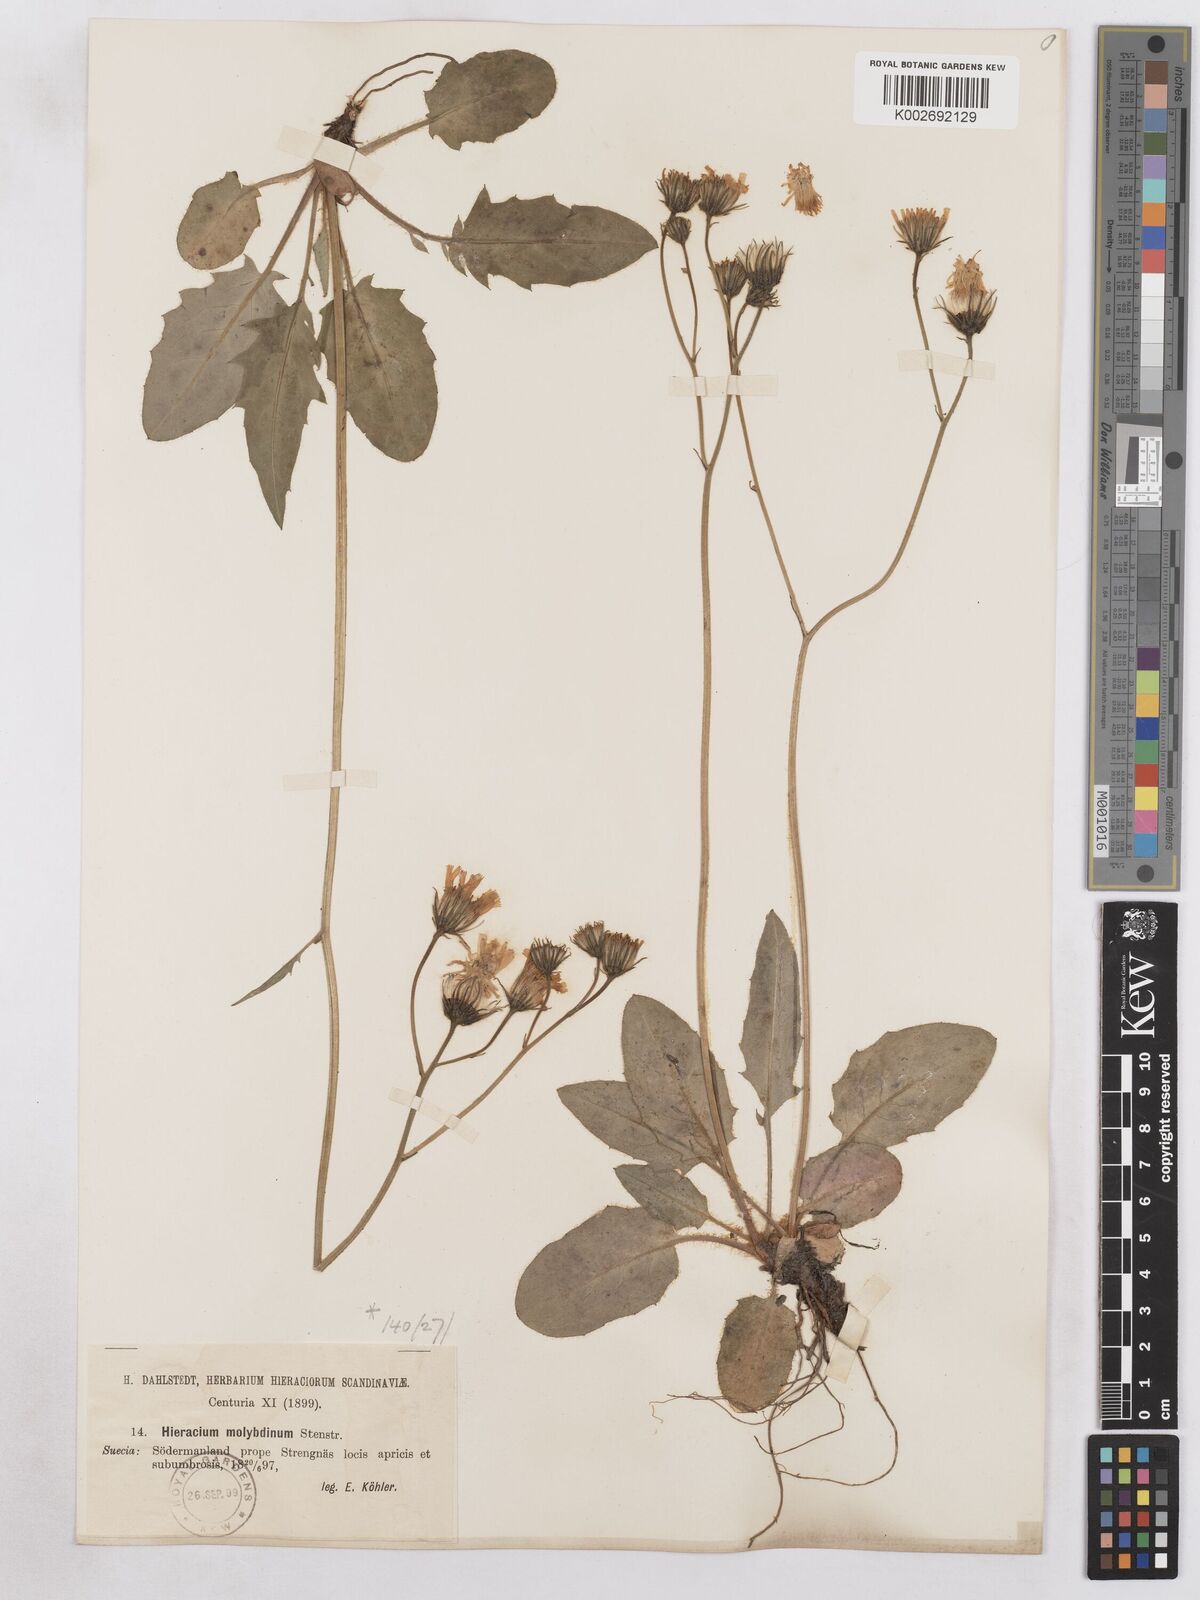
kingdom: Plantae
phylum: Tracheophyta
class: Magnoliopsida
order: Asterales
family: Asteraceae
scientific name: Asteraceae
